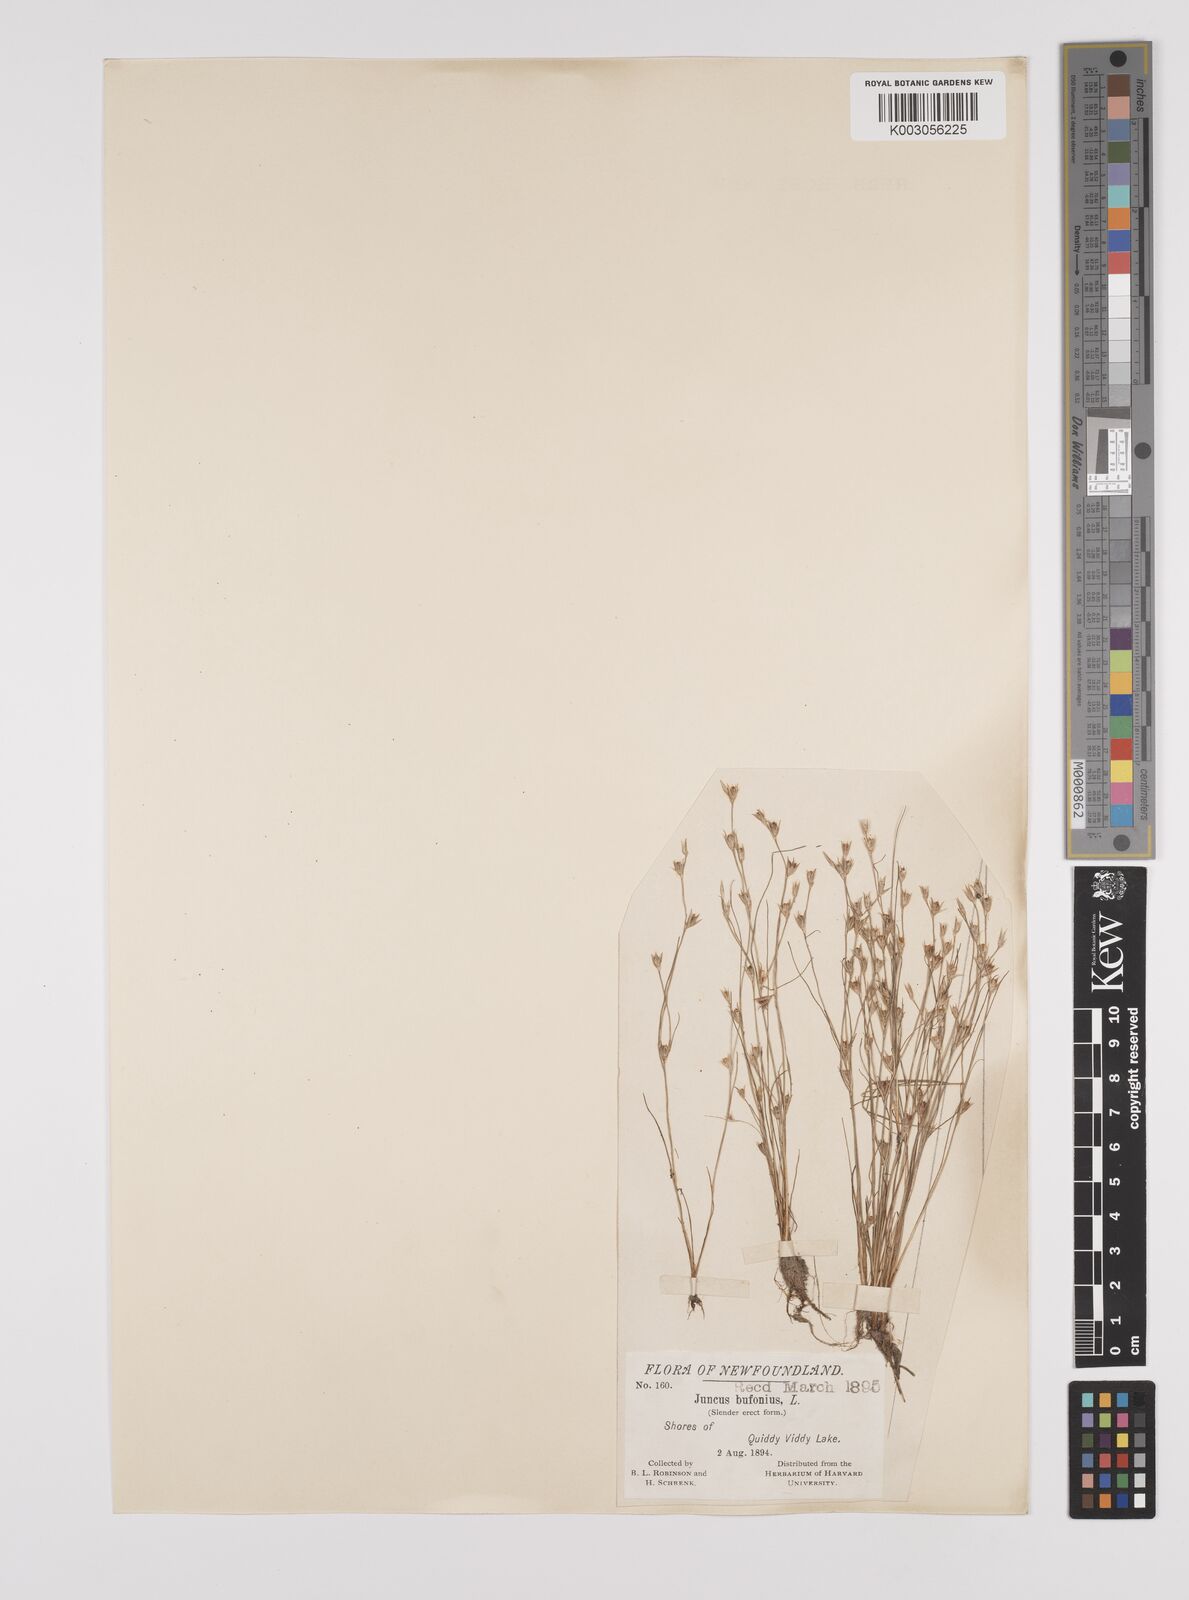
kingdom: Plantae
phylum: Tracheophyta
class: Liliopsida
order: Poales
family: Juncaceae
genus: Juncus
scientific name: Juncus bufonius
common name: Toad rush
